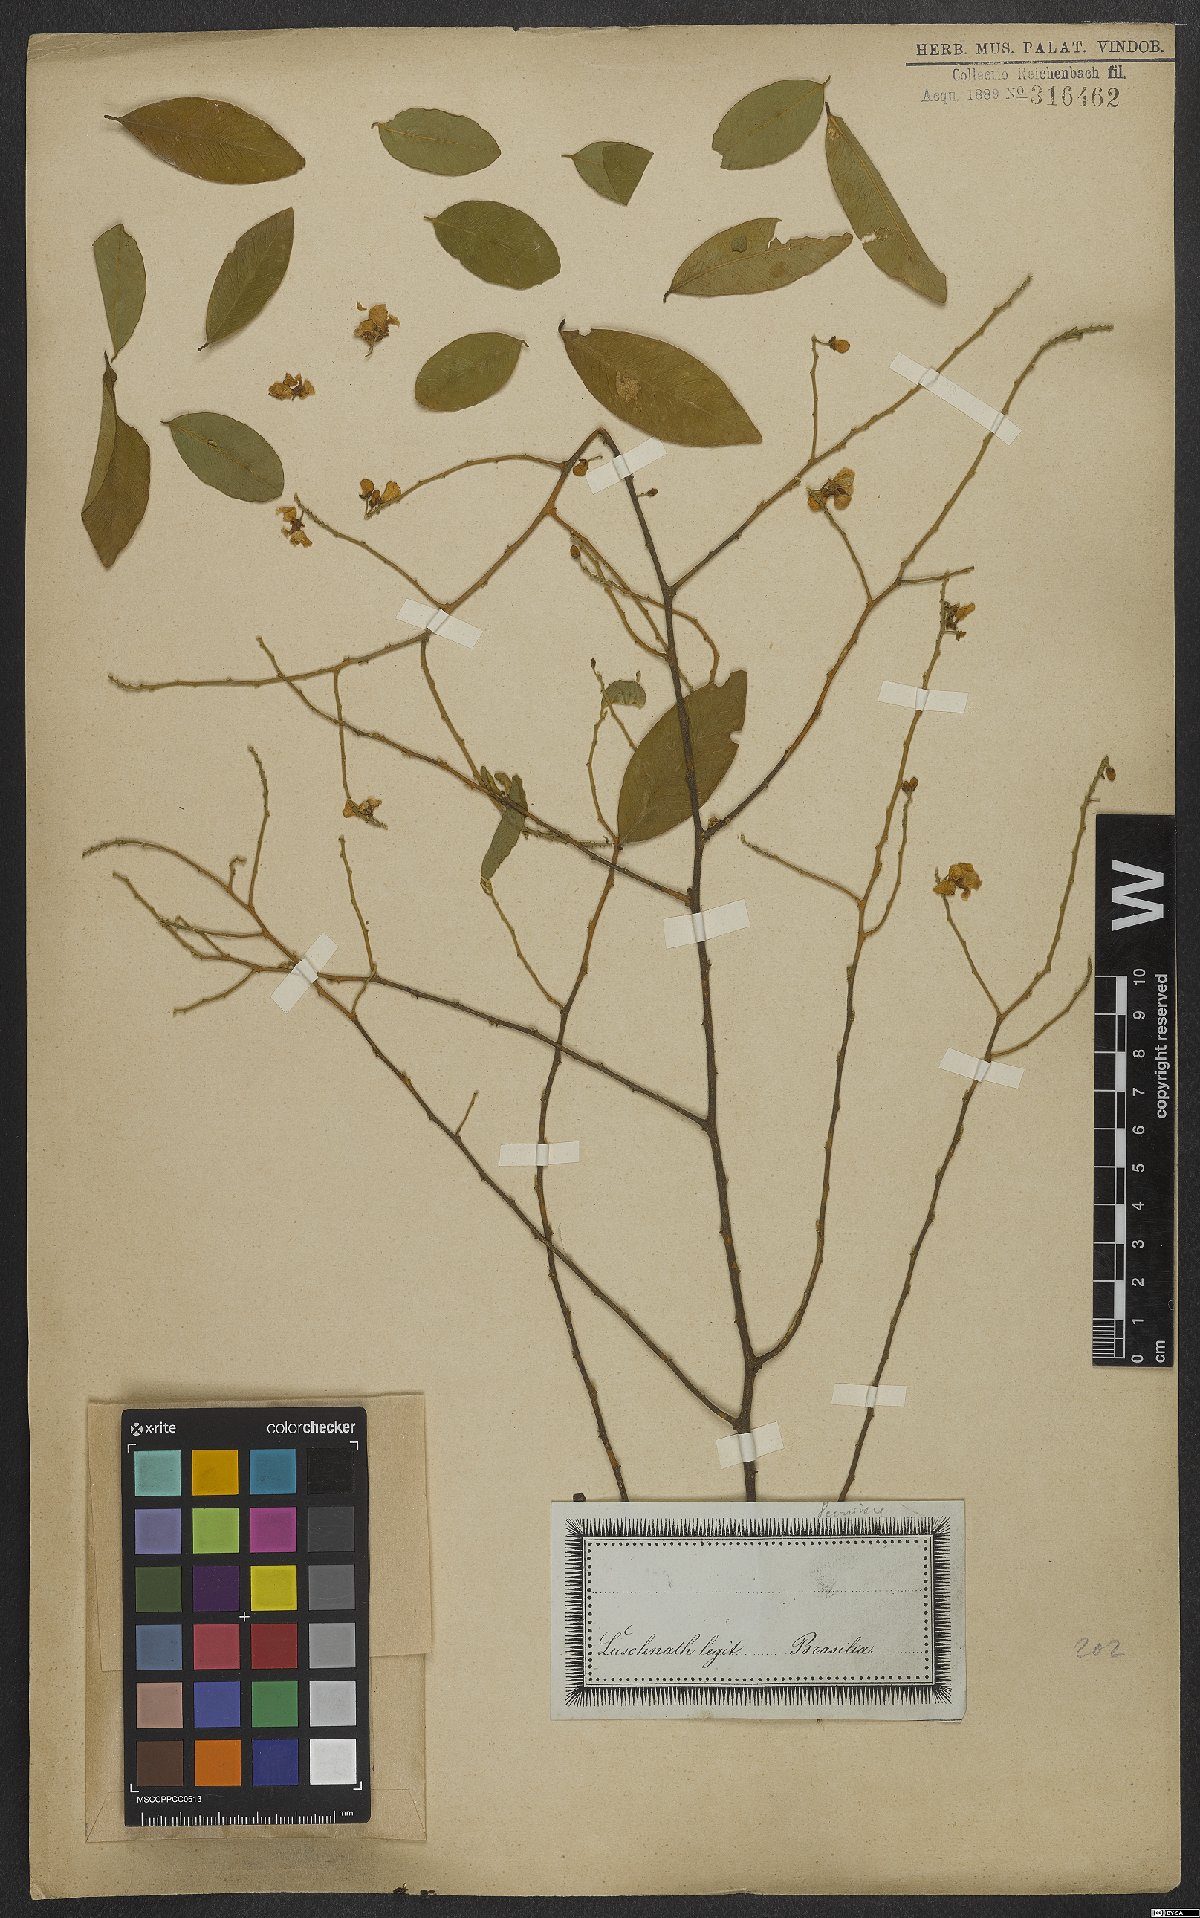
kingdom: Plantae
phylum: Tracheophyta
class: Magnoliopsida
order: Fabales
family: Polygalaceae
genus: Securidaca
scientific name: Securidaca lanceolata
